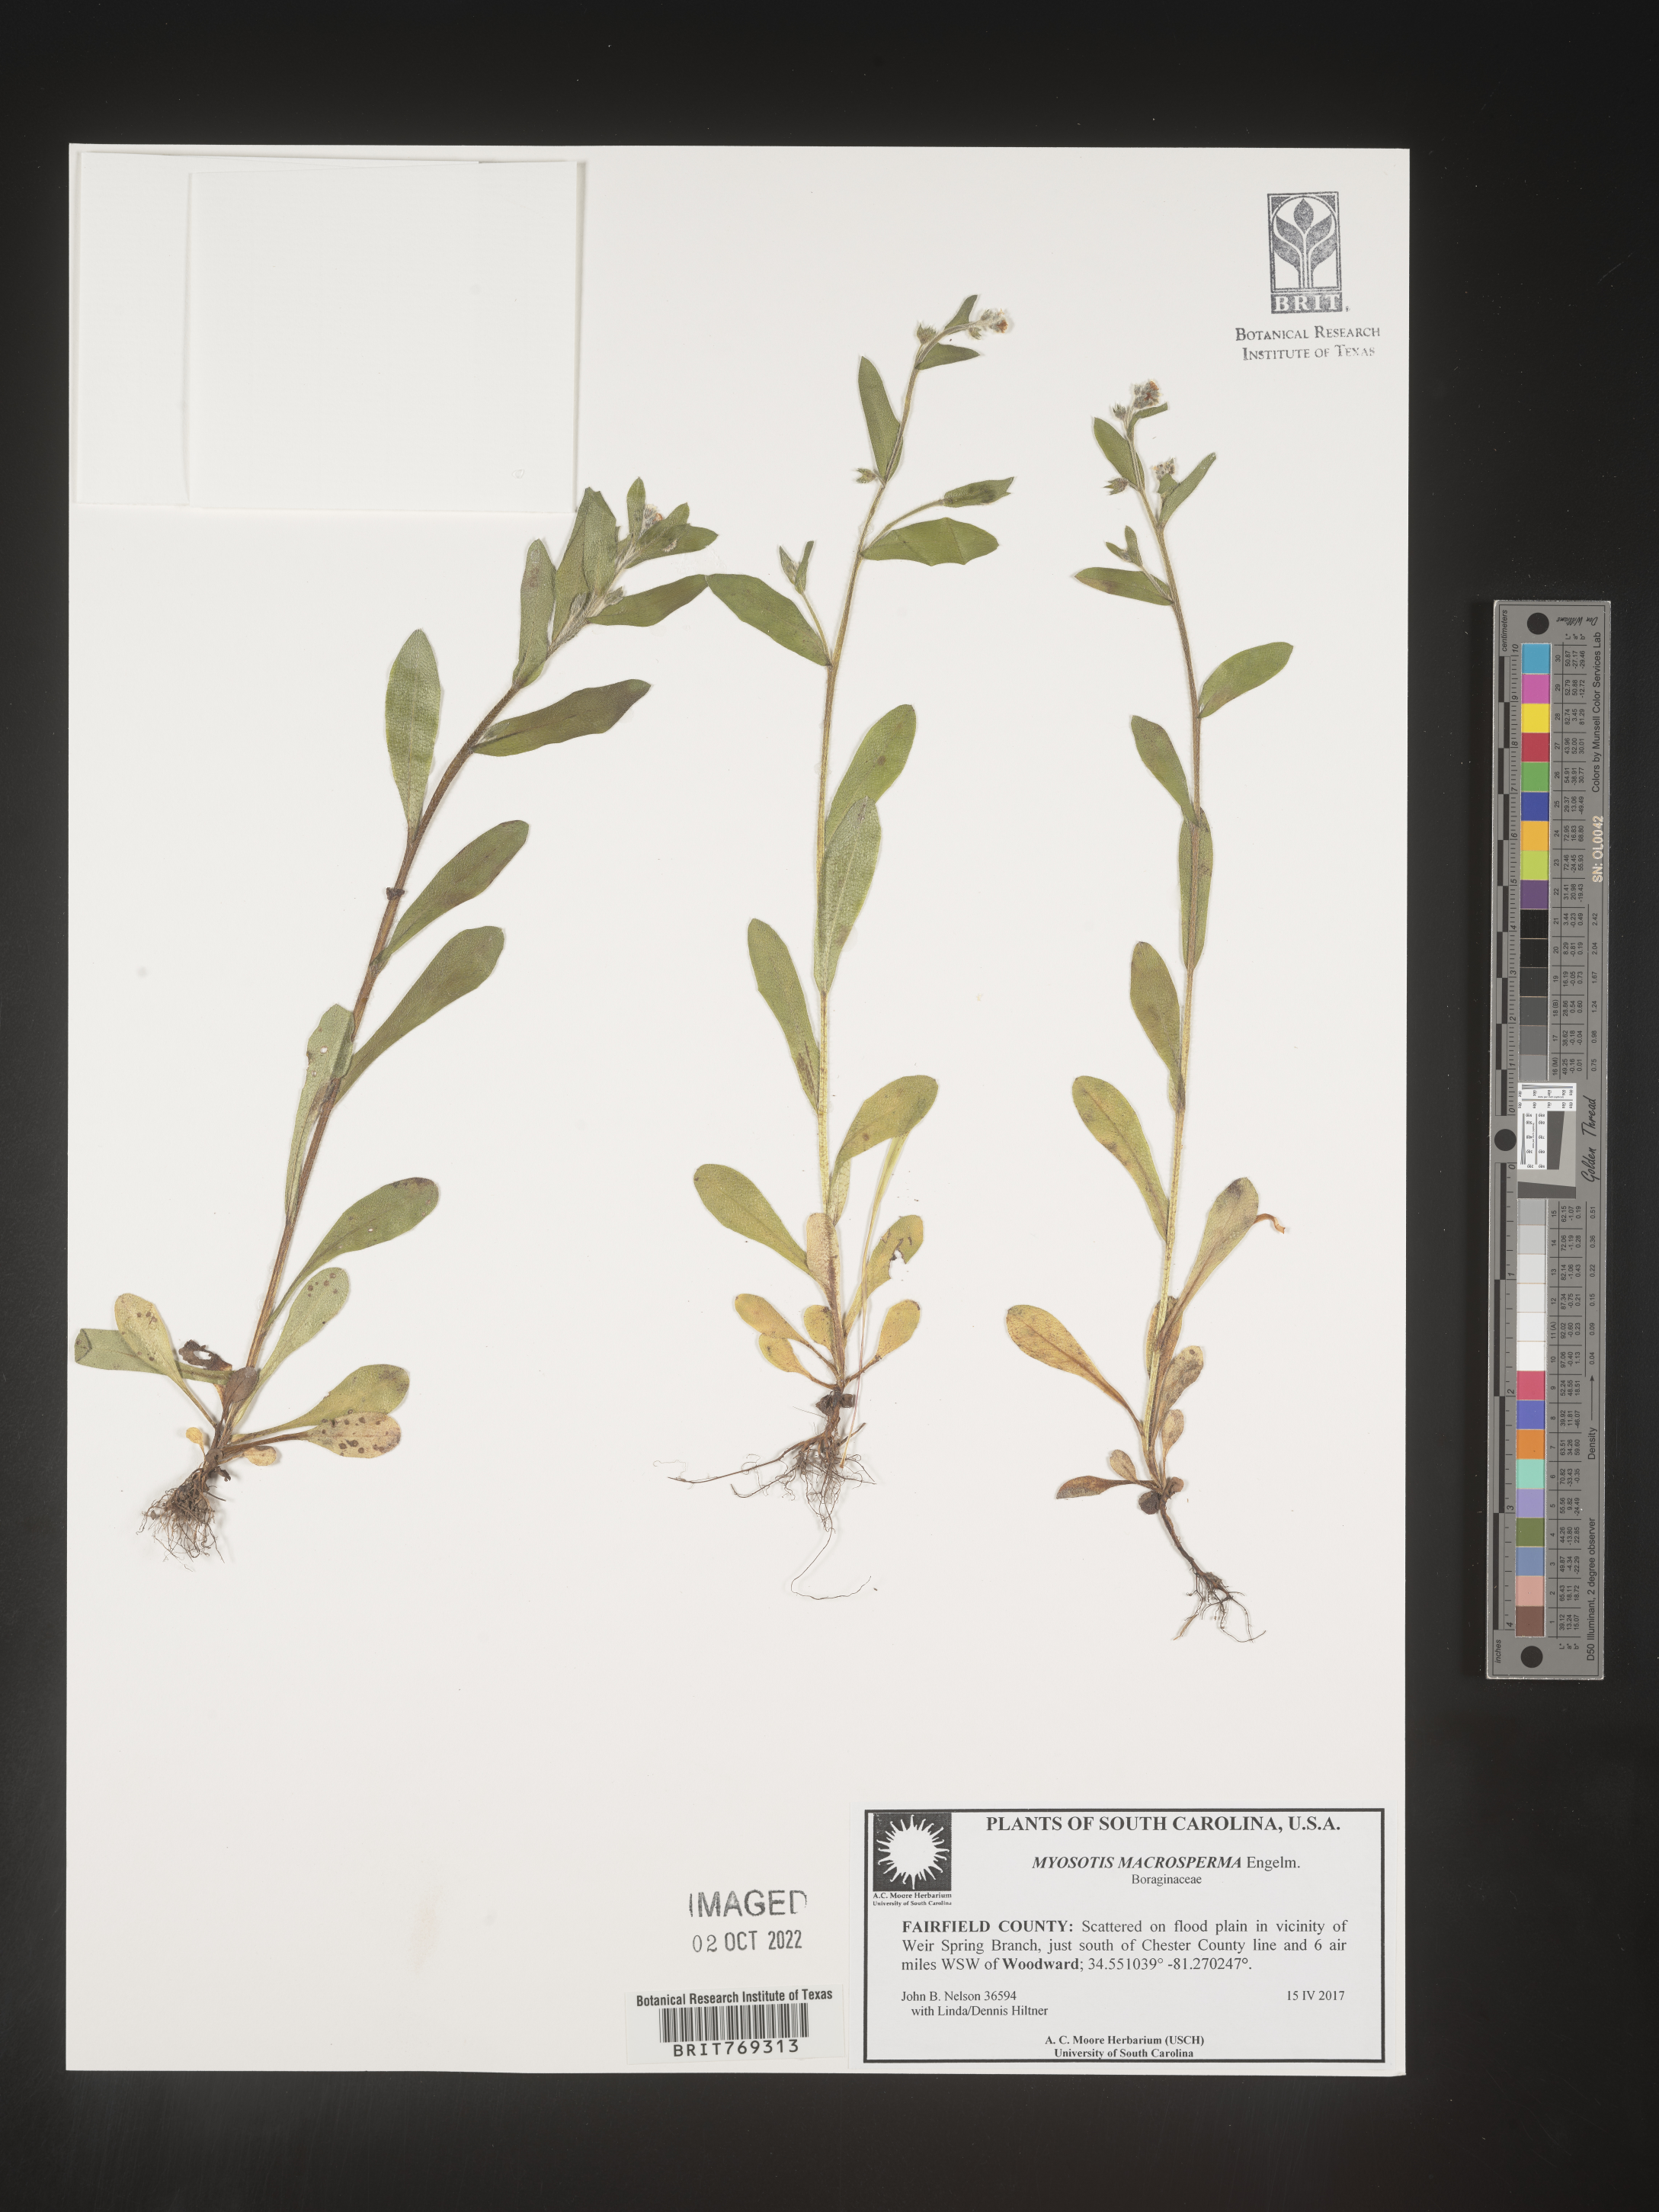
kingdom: Plantae
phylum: Tracheophyta
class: Magnoliopsida
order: Boraginales
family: Boraginaceae
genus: Myosotis
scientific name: Myosotis macrosperma
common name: Large-seed forget-me-not
